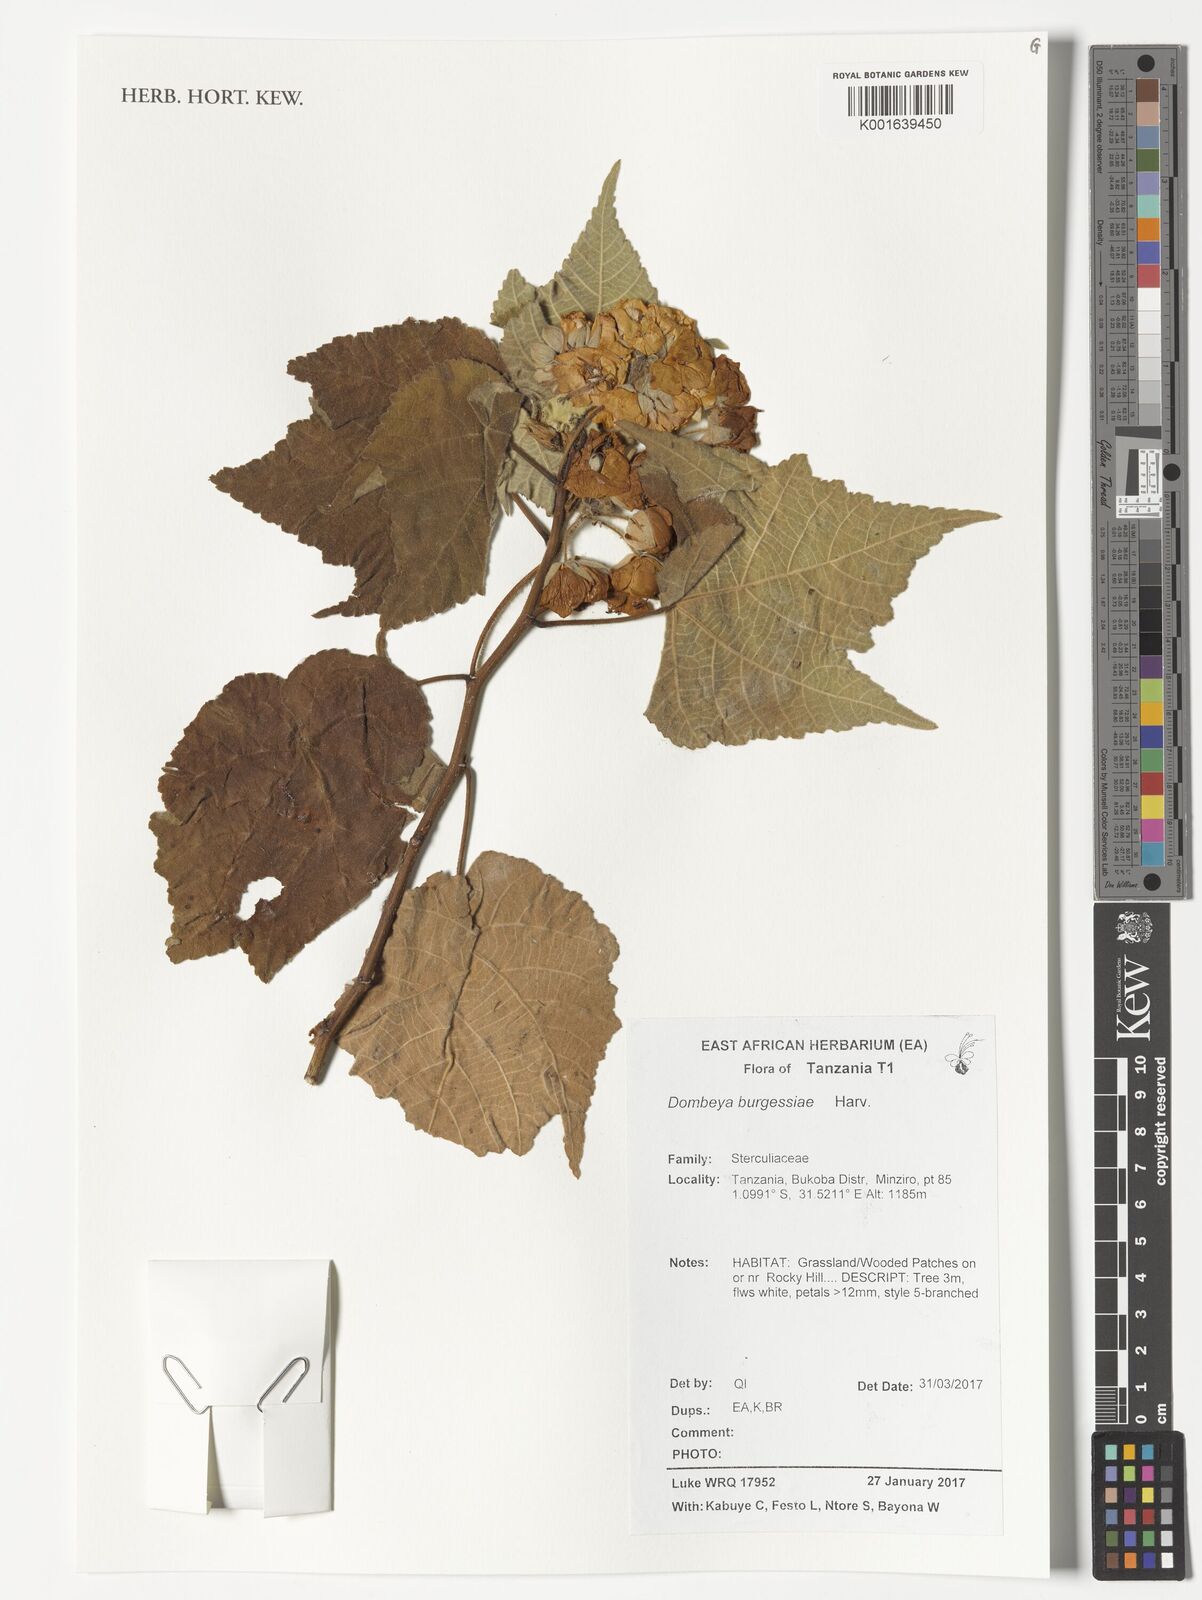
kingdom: Plantae
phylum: Tracheophyta
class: Magnoliopsida
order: Malvales
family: Malvaceae
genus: Dombeya
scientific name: Dombeya burgessiae
